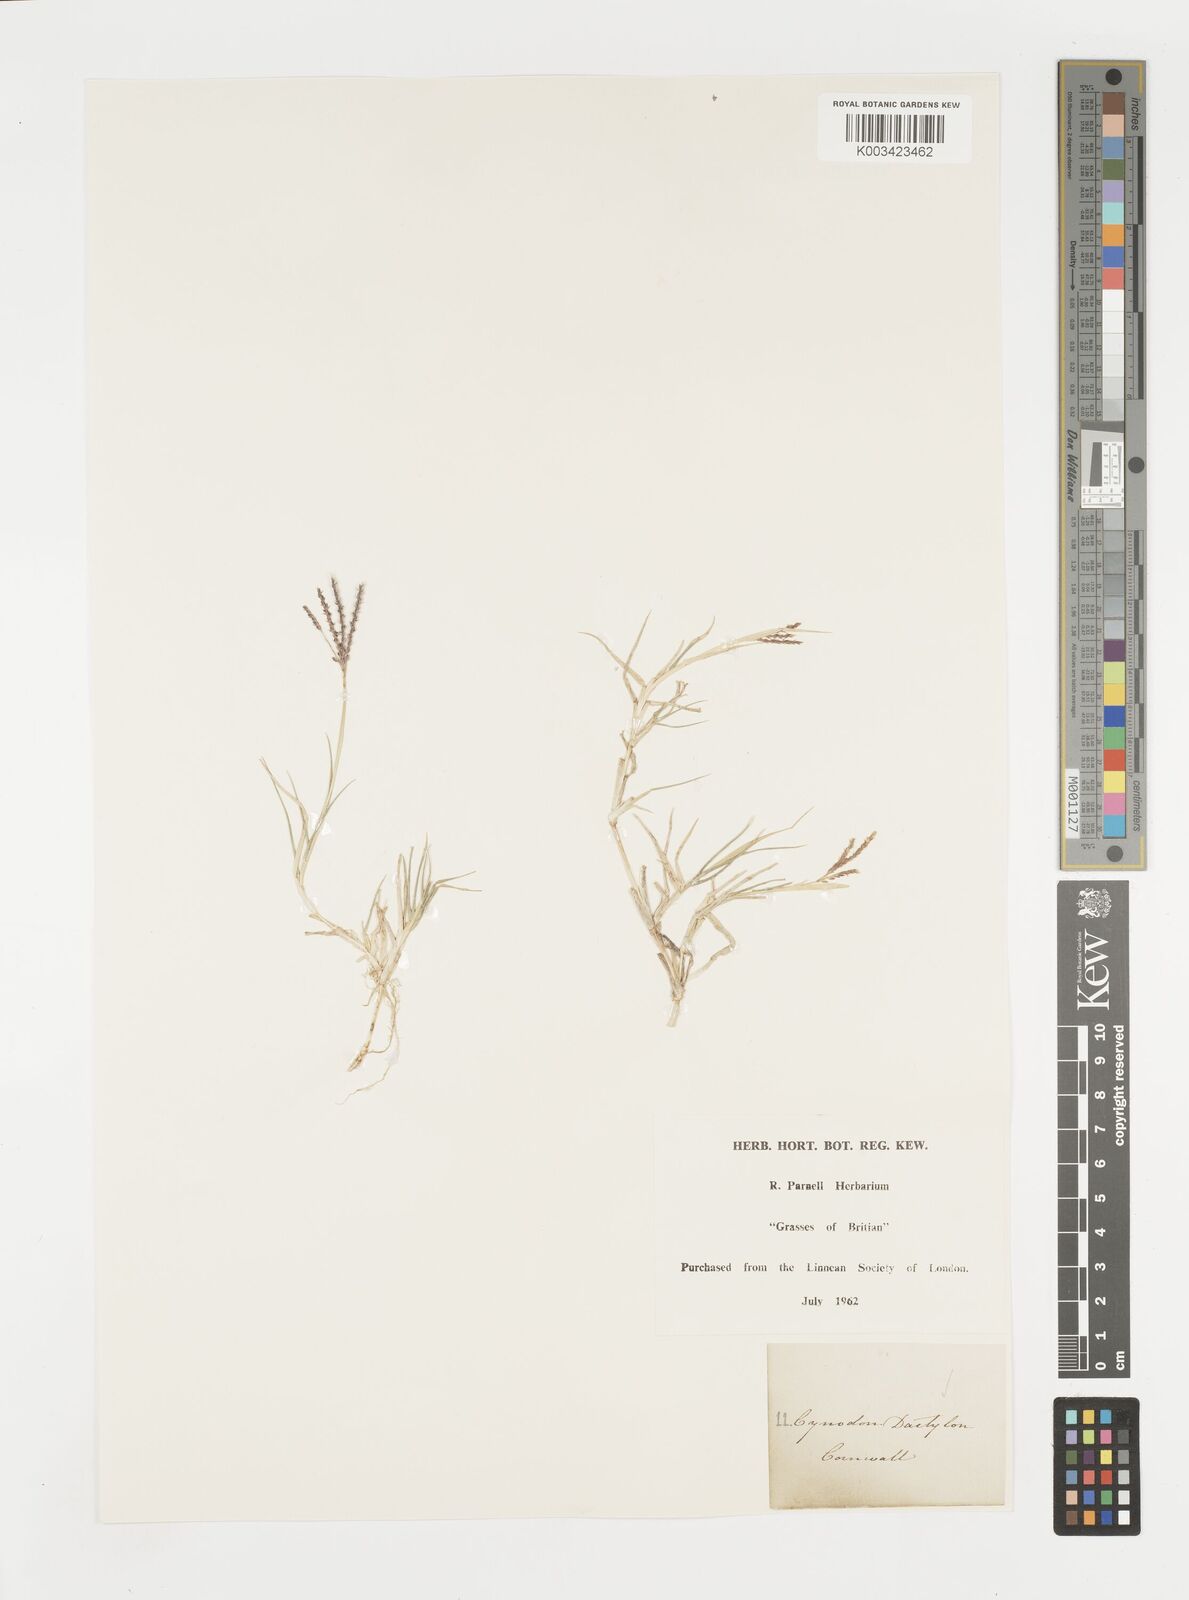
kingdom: Plantae
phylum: Tracheophyta
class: Liliopsida
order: Poales
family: Poaceae
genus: Cynodon
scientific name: Cynodon dactylon
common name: Bermuda grass
